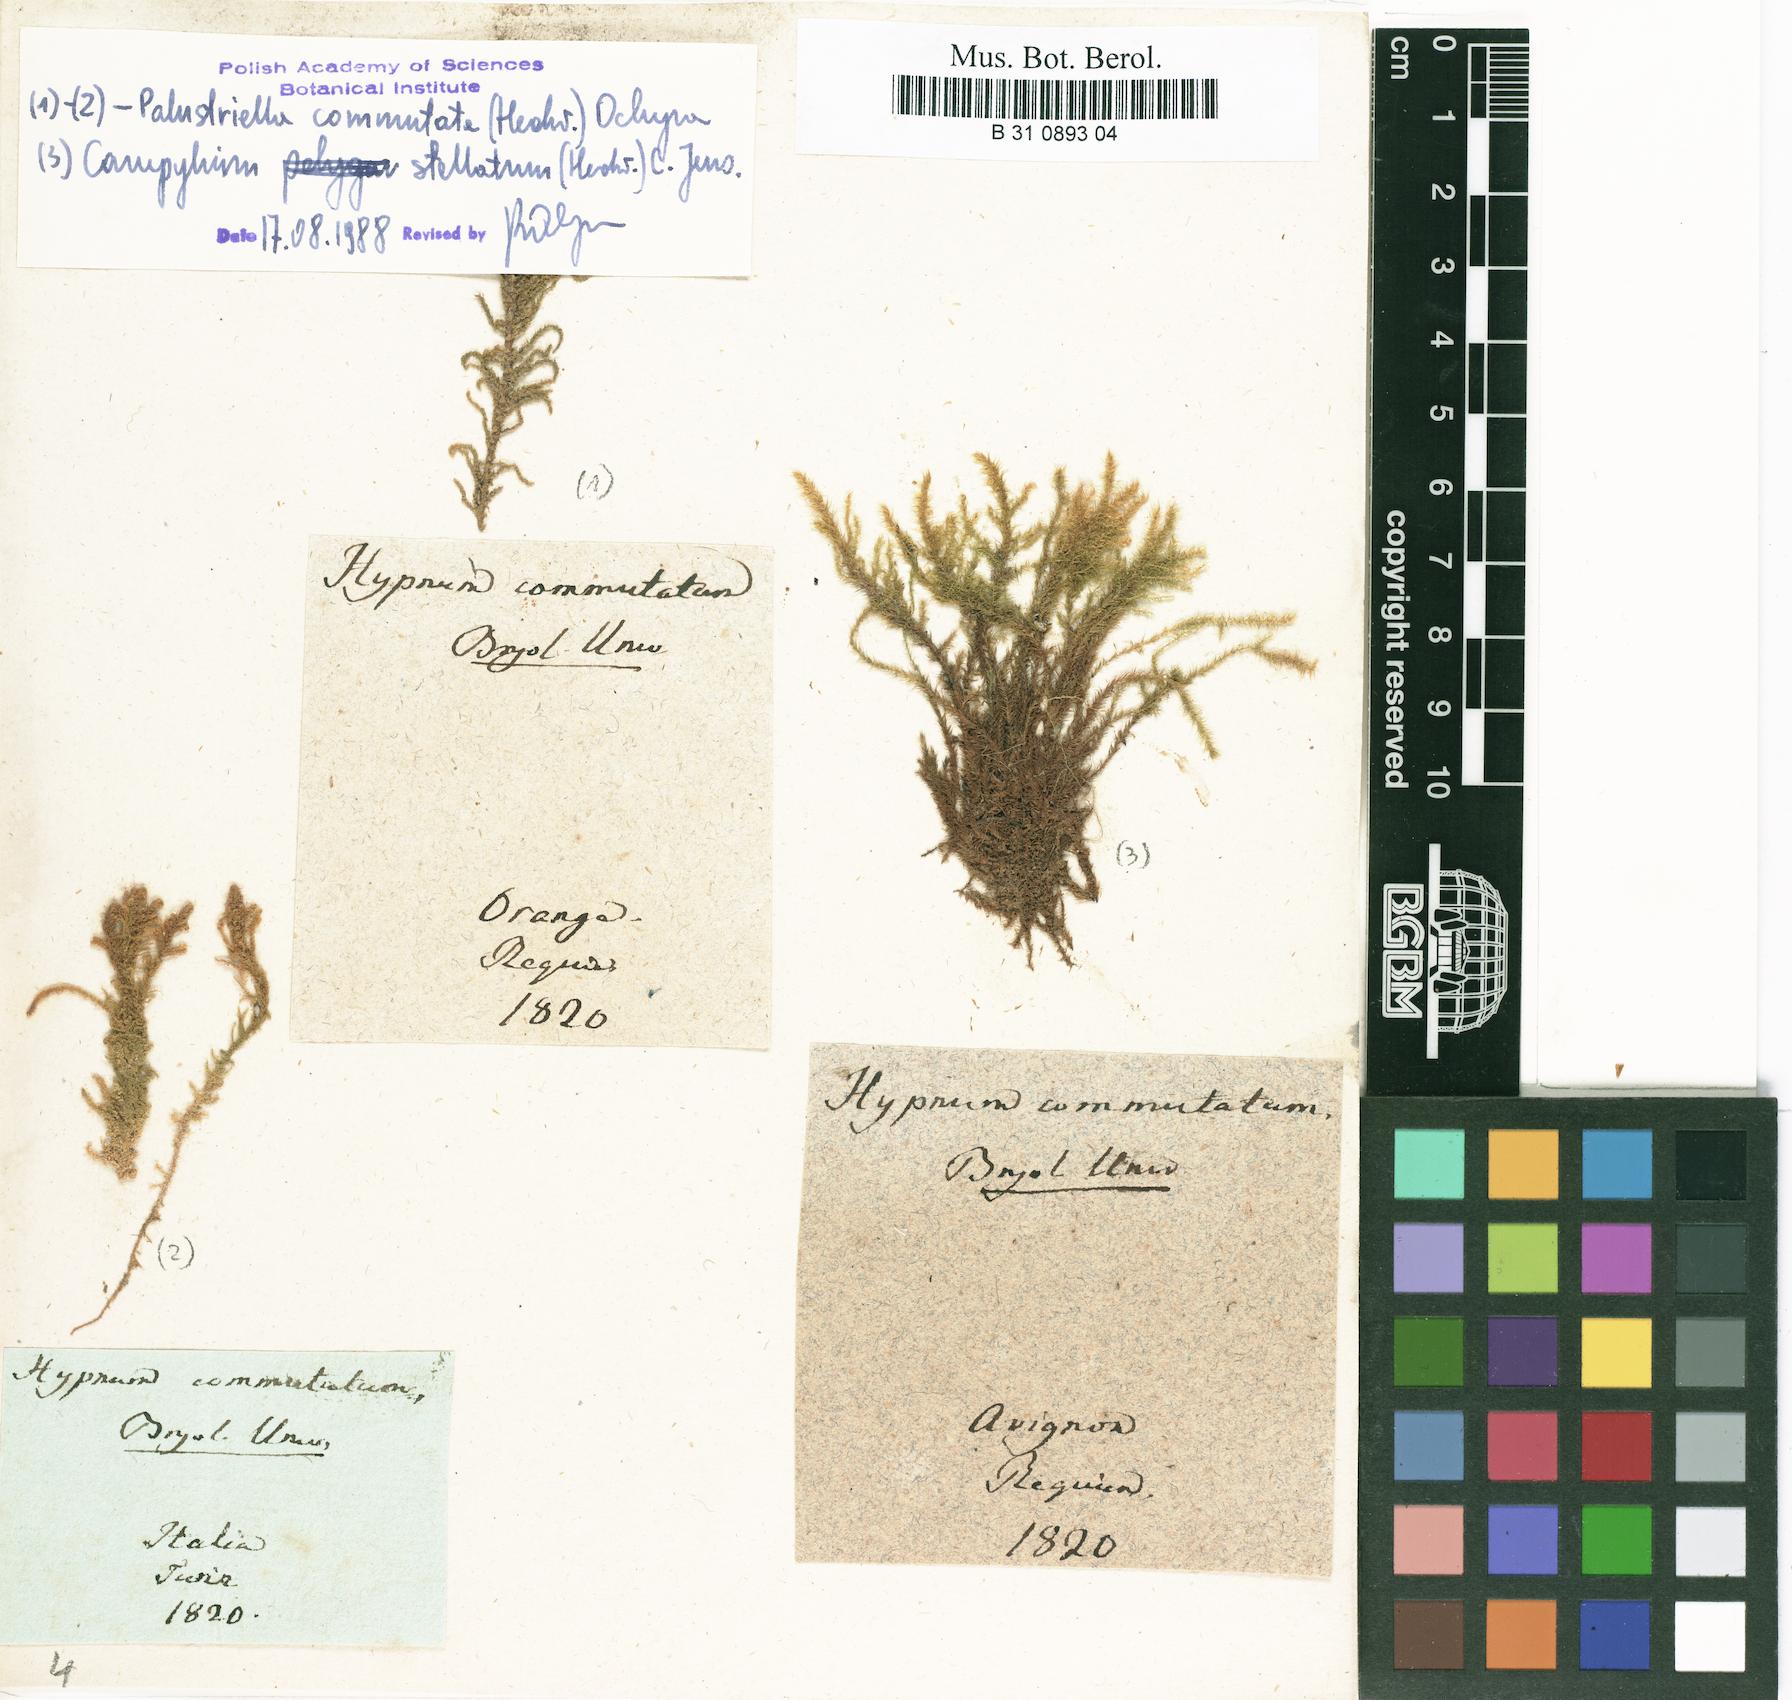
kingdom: Plantae
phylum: Bryophyta
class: Bryopsida
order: Hypnales
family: Amblystegiaceae
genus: Palustriella
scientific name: Palustriella commutata
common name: Curled hook-moss
